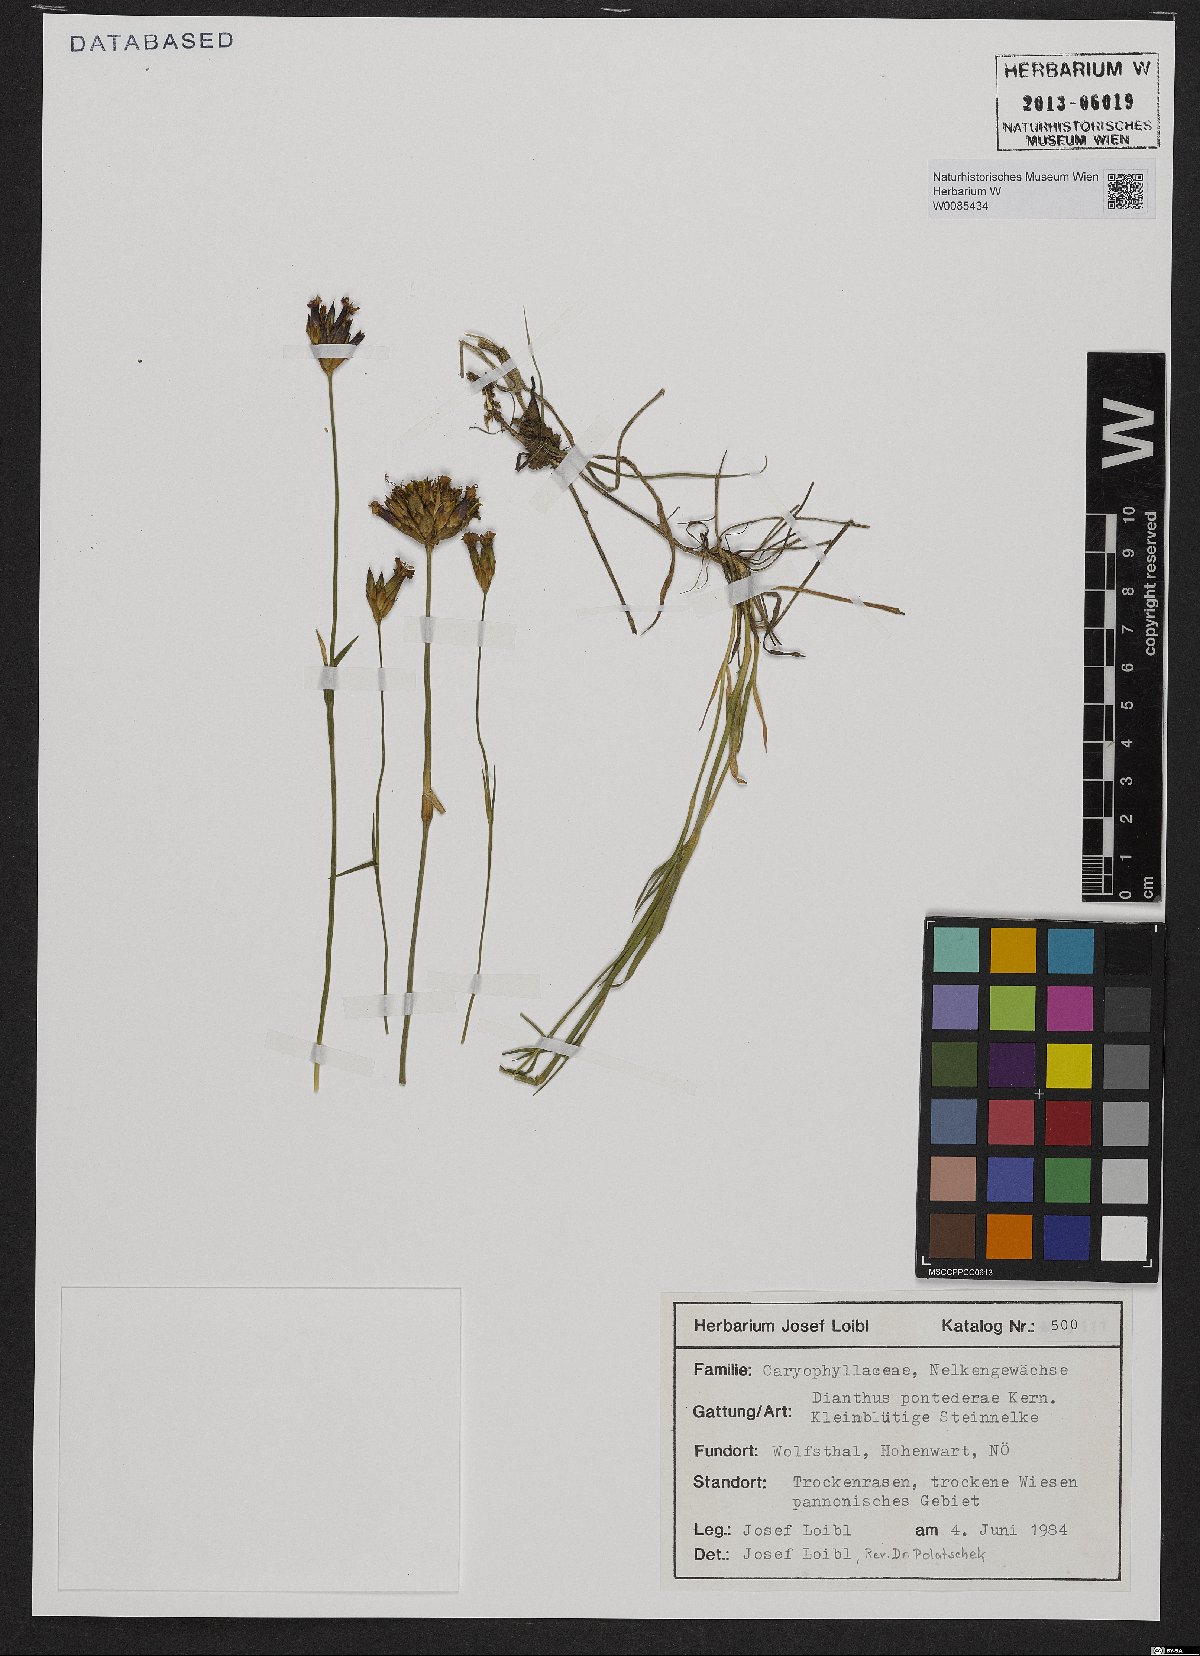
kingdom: Plantae
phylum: Tracheophyta
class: Magnoliopsida
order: Caryophyllales
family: Caryophyllaceae
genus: Dianthus
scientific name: Dianthus pontederae
